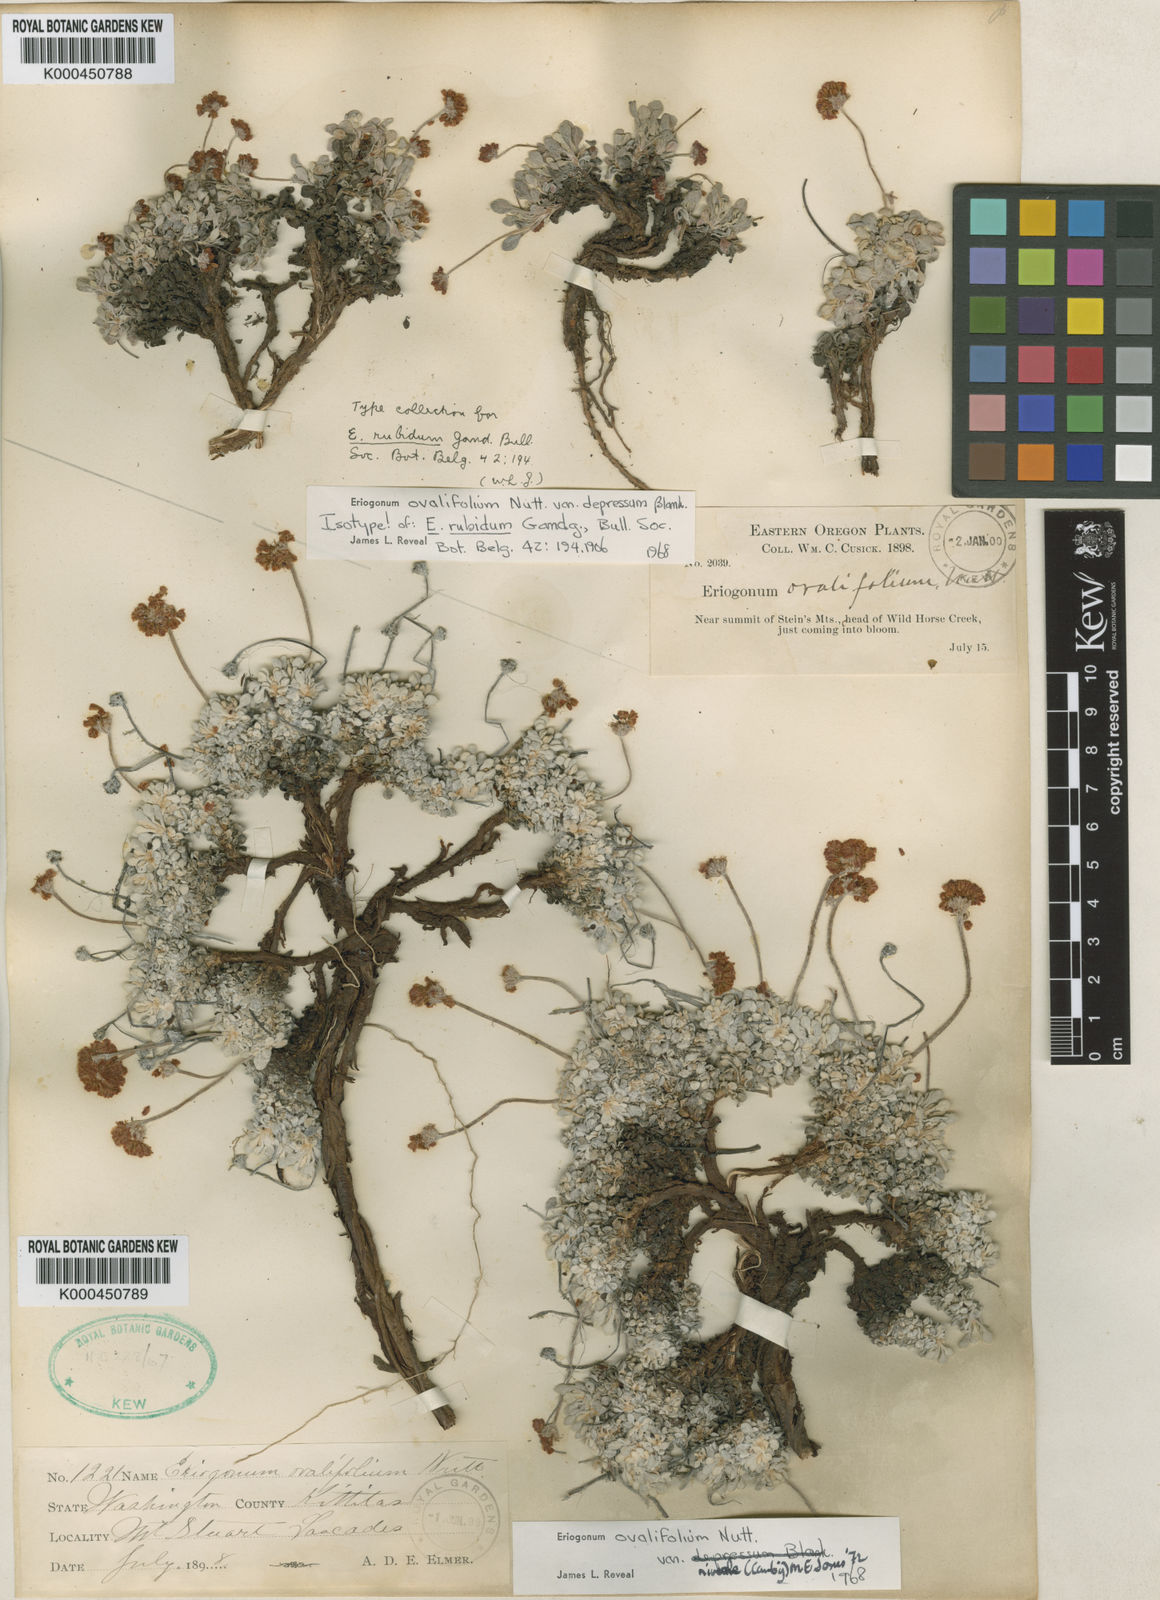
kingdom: Plantae
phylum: Tracheophyta
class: Magnoliopsida
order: Caryophyllales
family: Polygonaceae
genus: Eriogonum
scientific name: Eriogonum ovalifolium
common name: Cushion buckwheat
